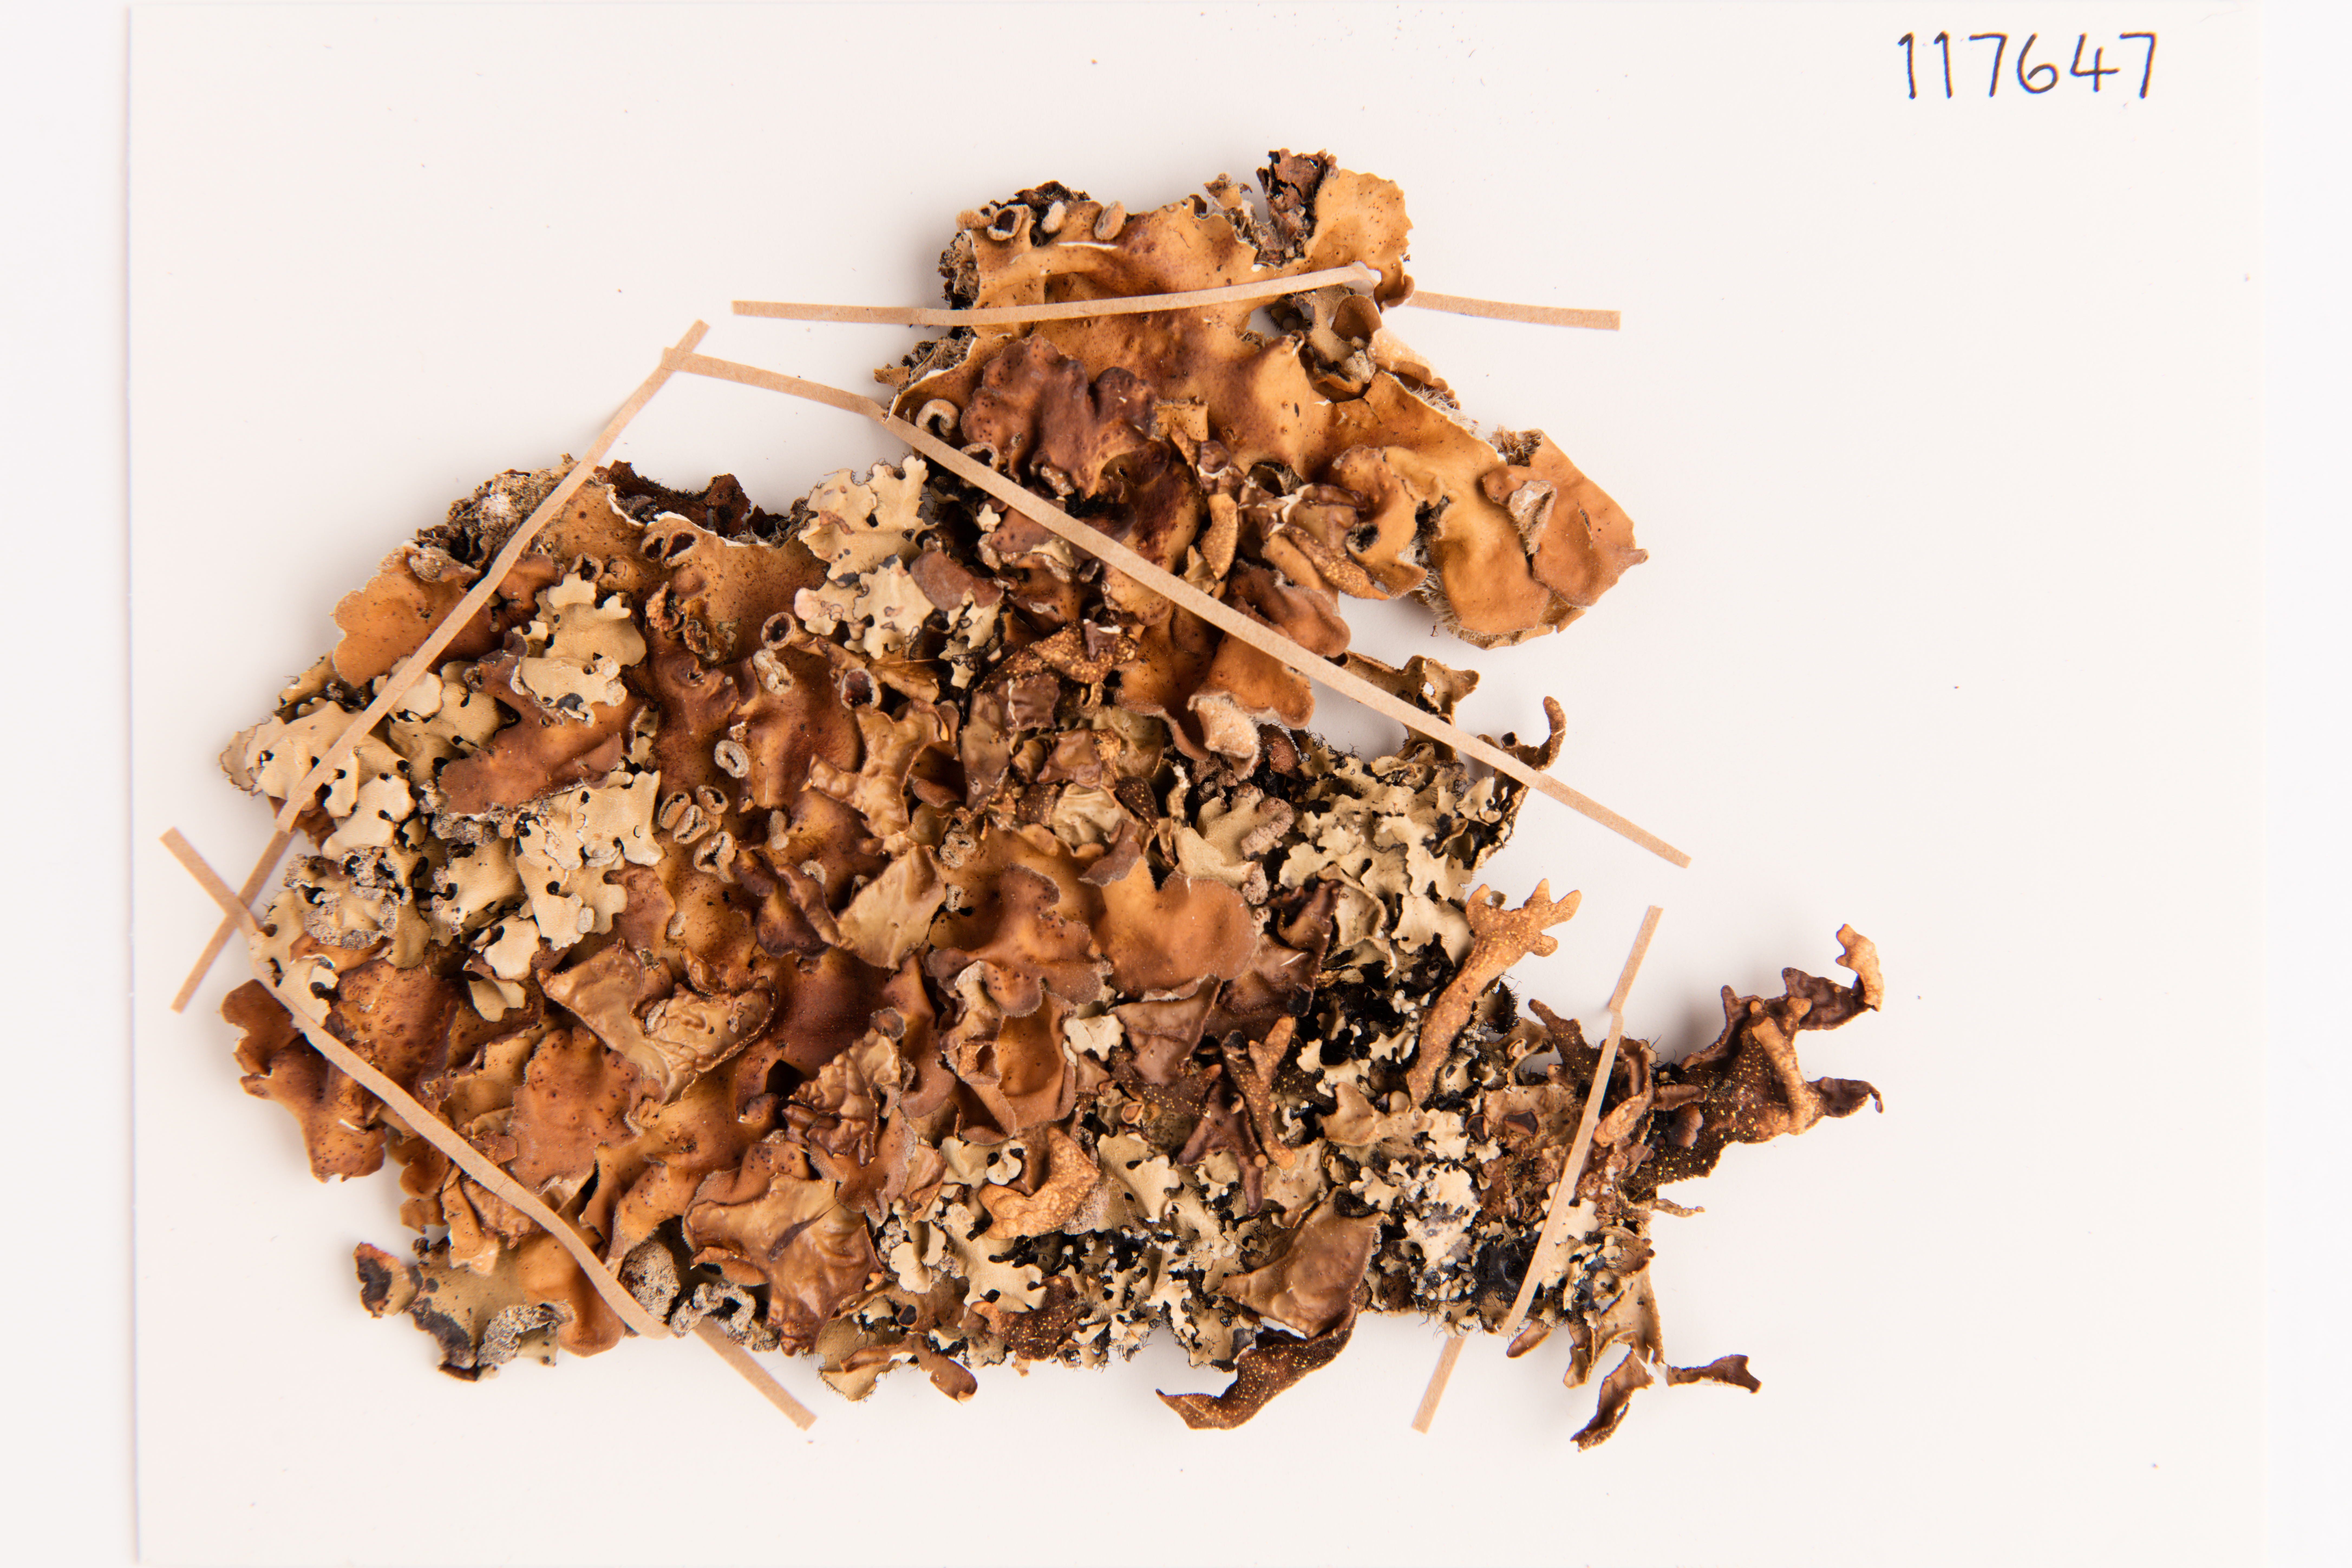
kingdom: Fungi
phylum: Ascomycota
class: Lecanoromycetes
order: Peltigerales
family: Lobariaceae
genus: Pseudocyphellaria
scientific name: Pseudocyphellaria coriacea
